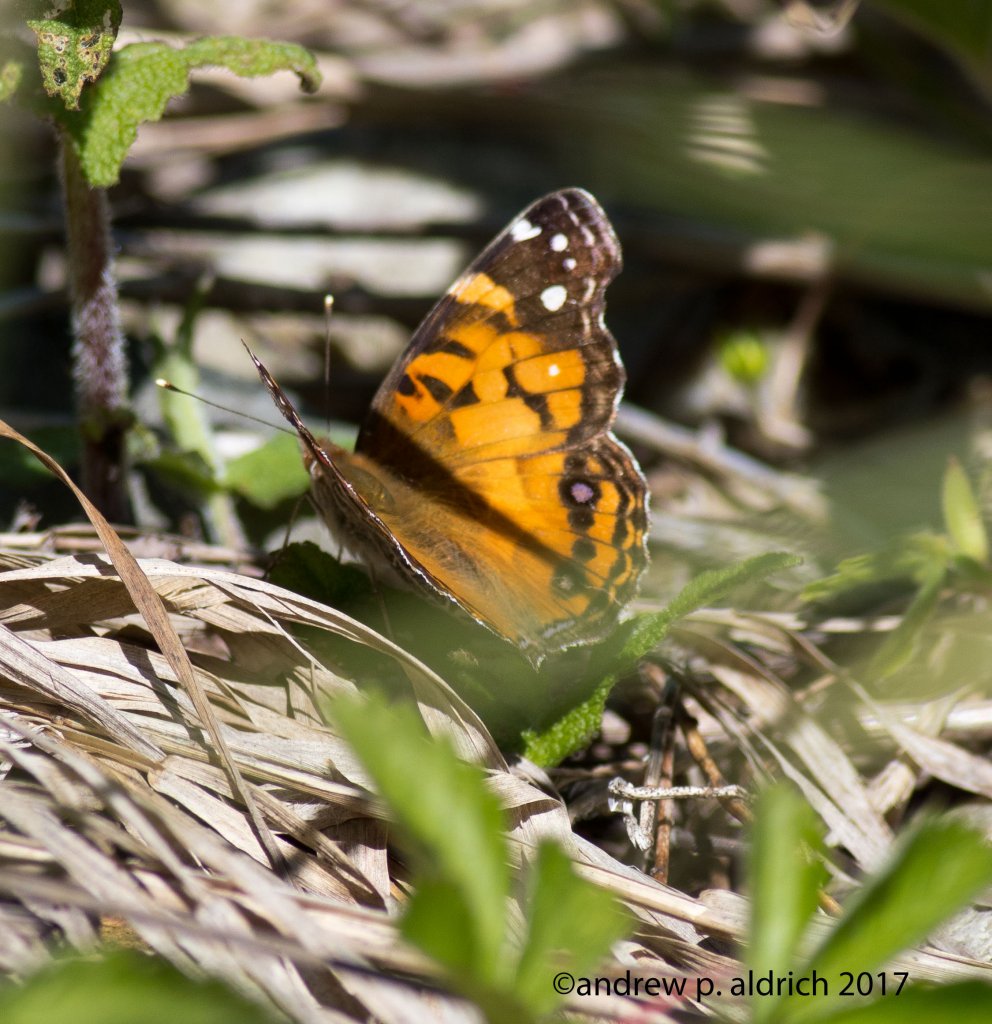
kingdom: Animalia
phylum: Arthropoda
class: Insecta
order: Lepidoptera
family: Nymphalidae
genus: Vanessa
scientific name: Vanessa virginiensis
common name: American Lady
